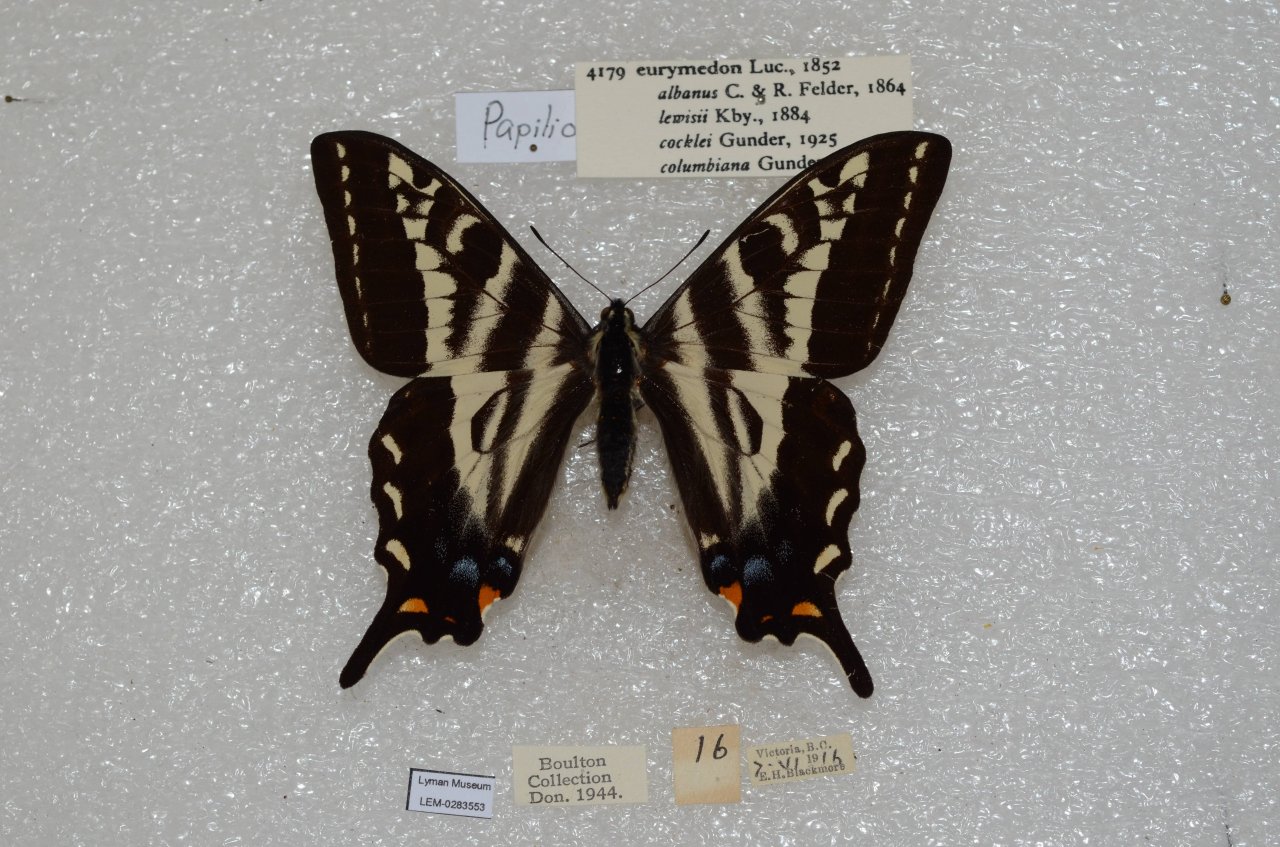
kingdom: Animalia
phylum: Arthropoda
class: Insecta
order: Lepidoptera
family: Papilionidae
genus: Pterourus
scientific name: Pterourus eurymedon
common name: Pale Swallowtail
